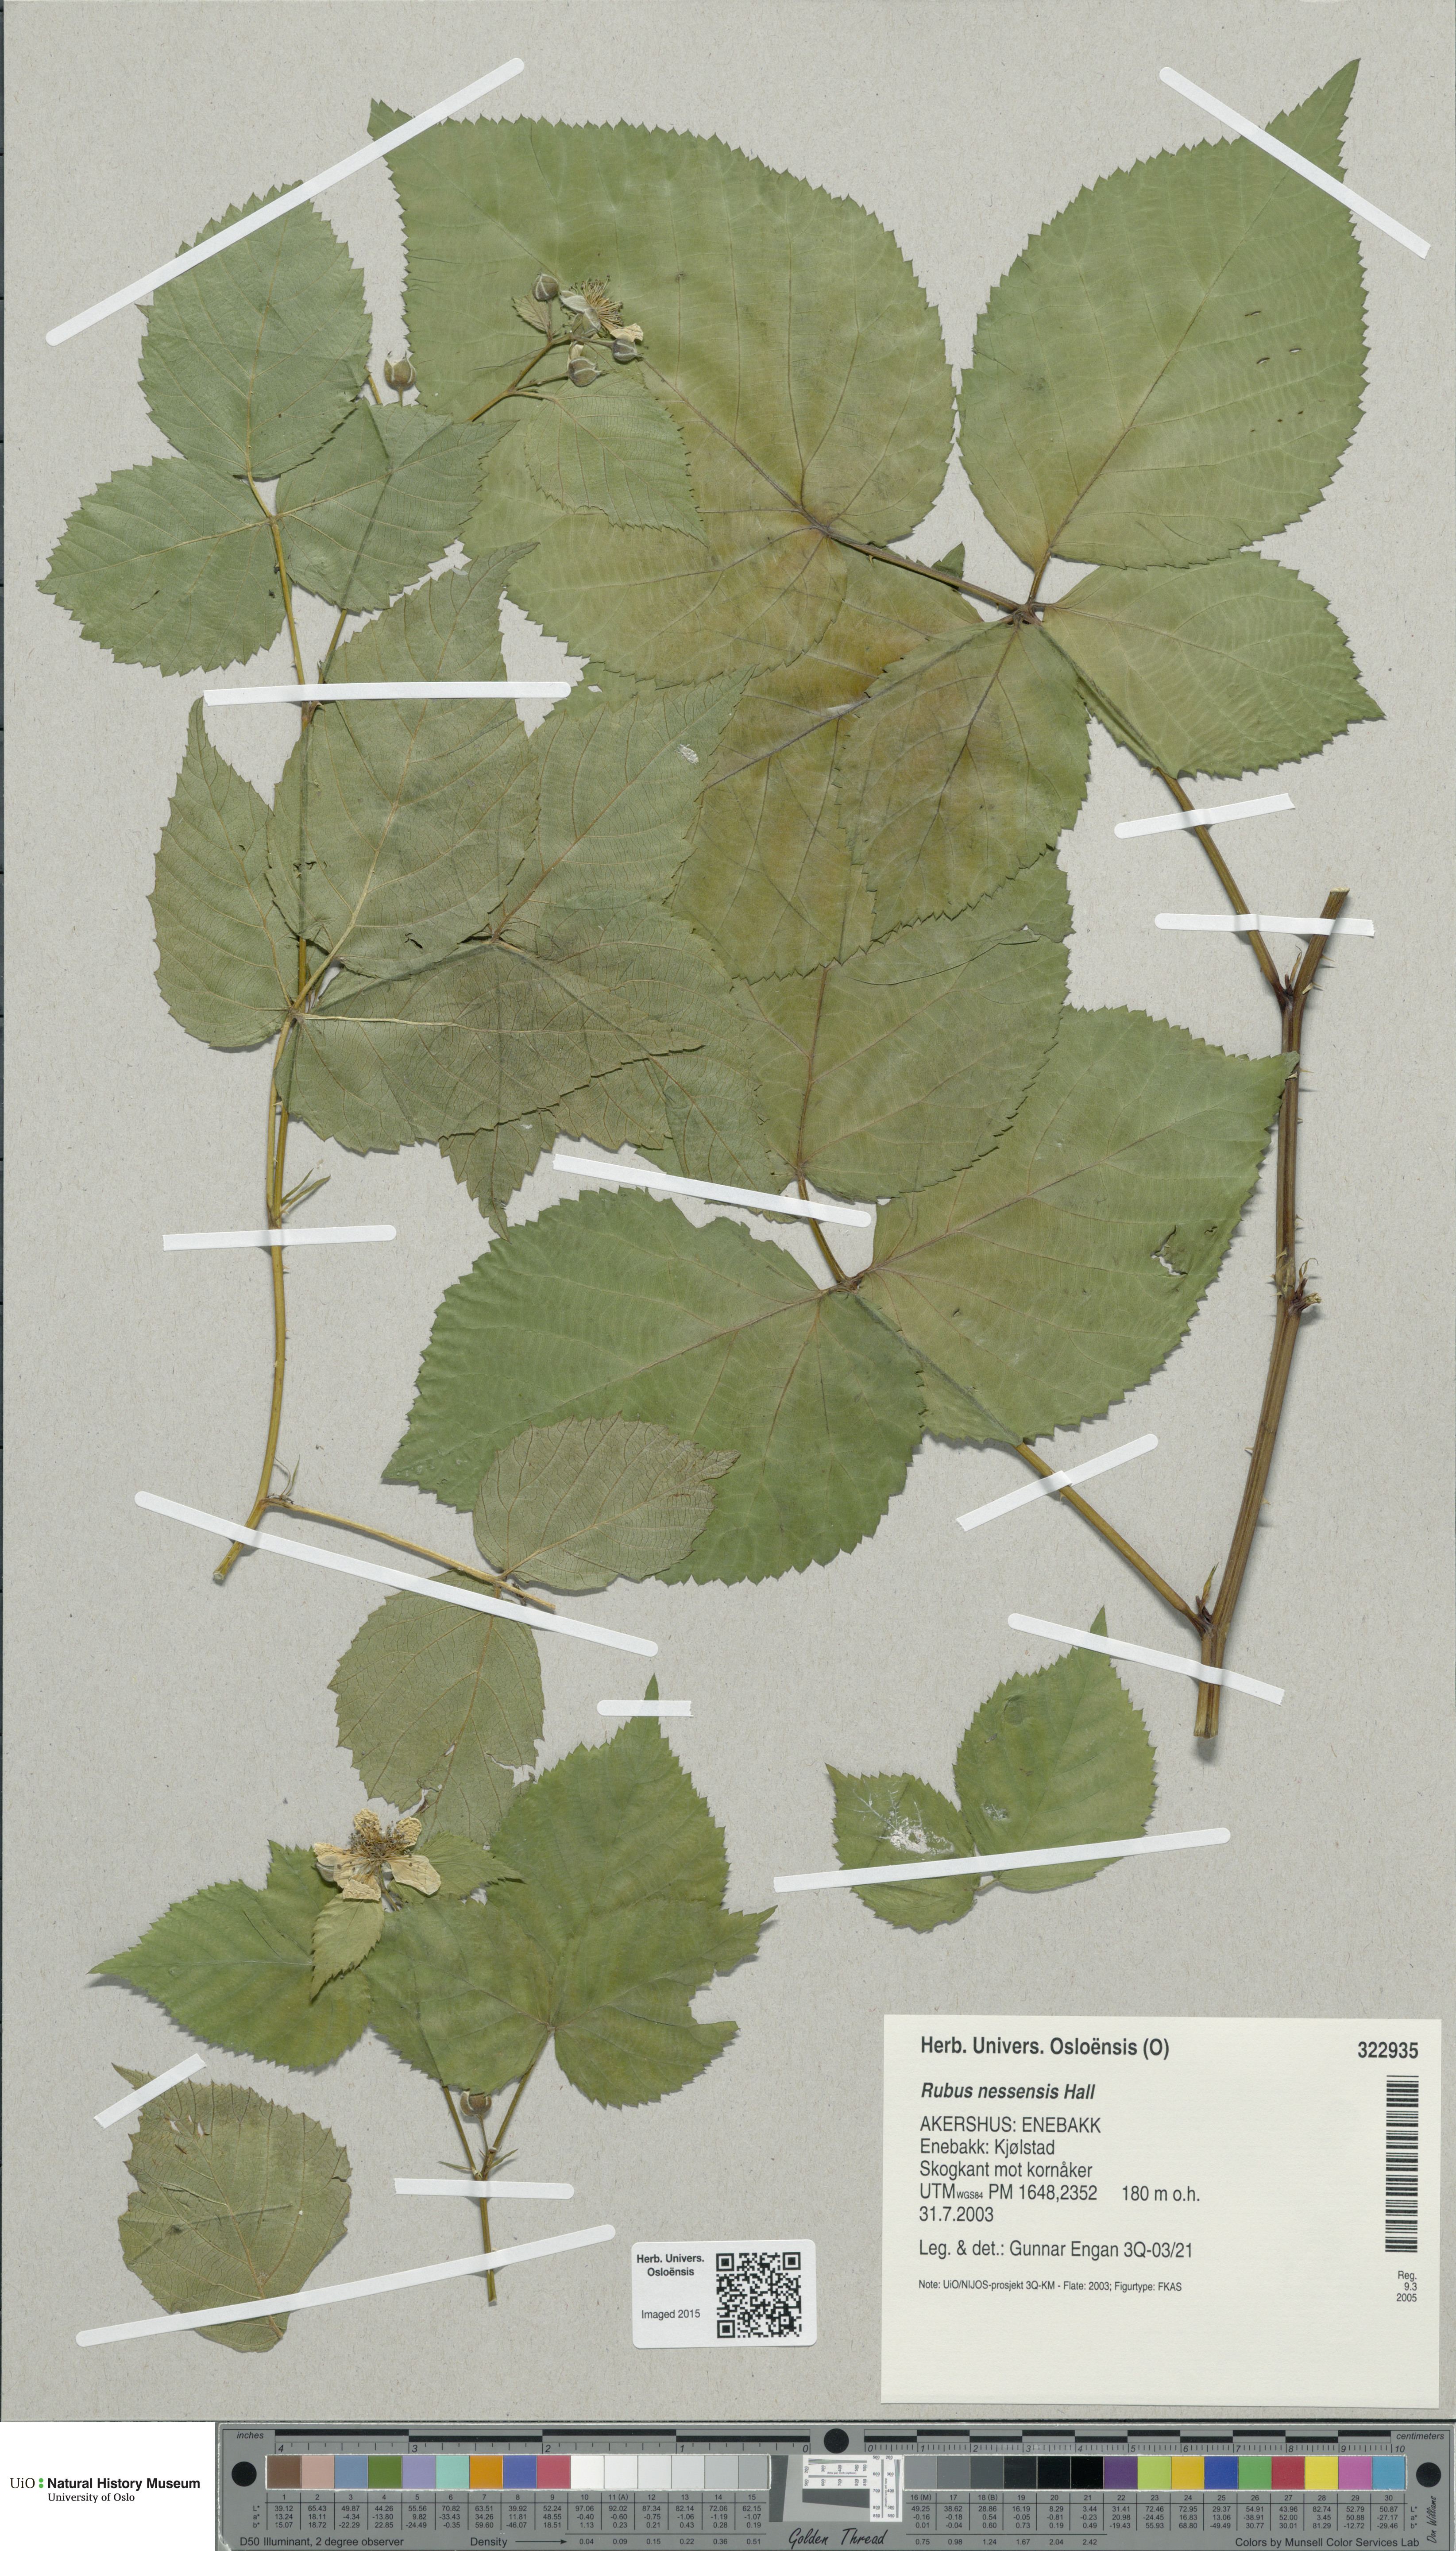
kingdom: Plantae
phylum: Tracheophyta
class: Magnoliopsida
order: Rosales
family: Rosaceae
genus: Rubus
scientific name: Rubus polonicus
